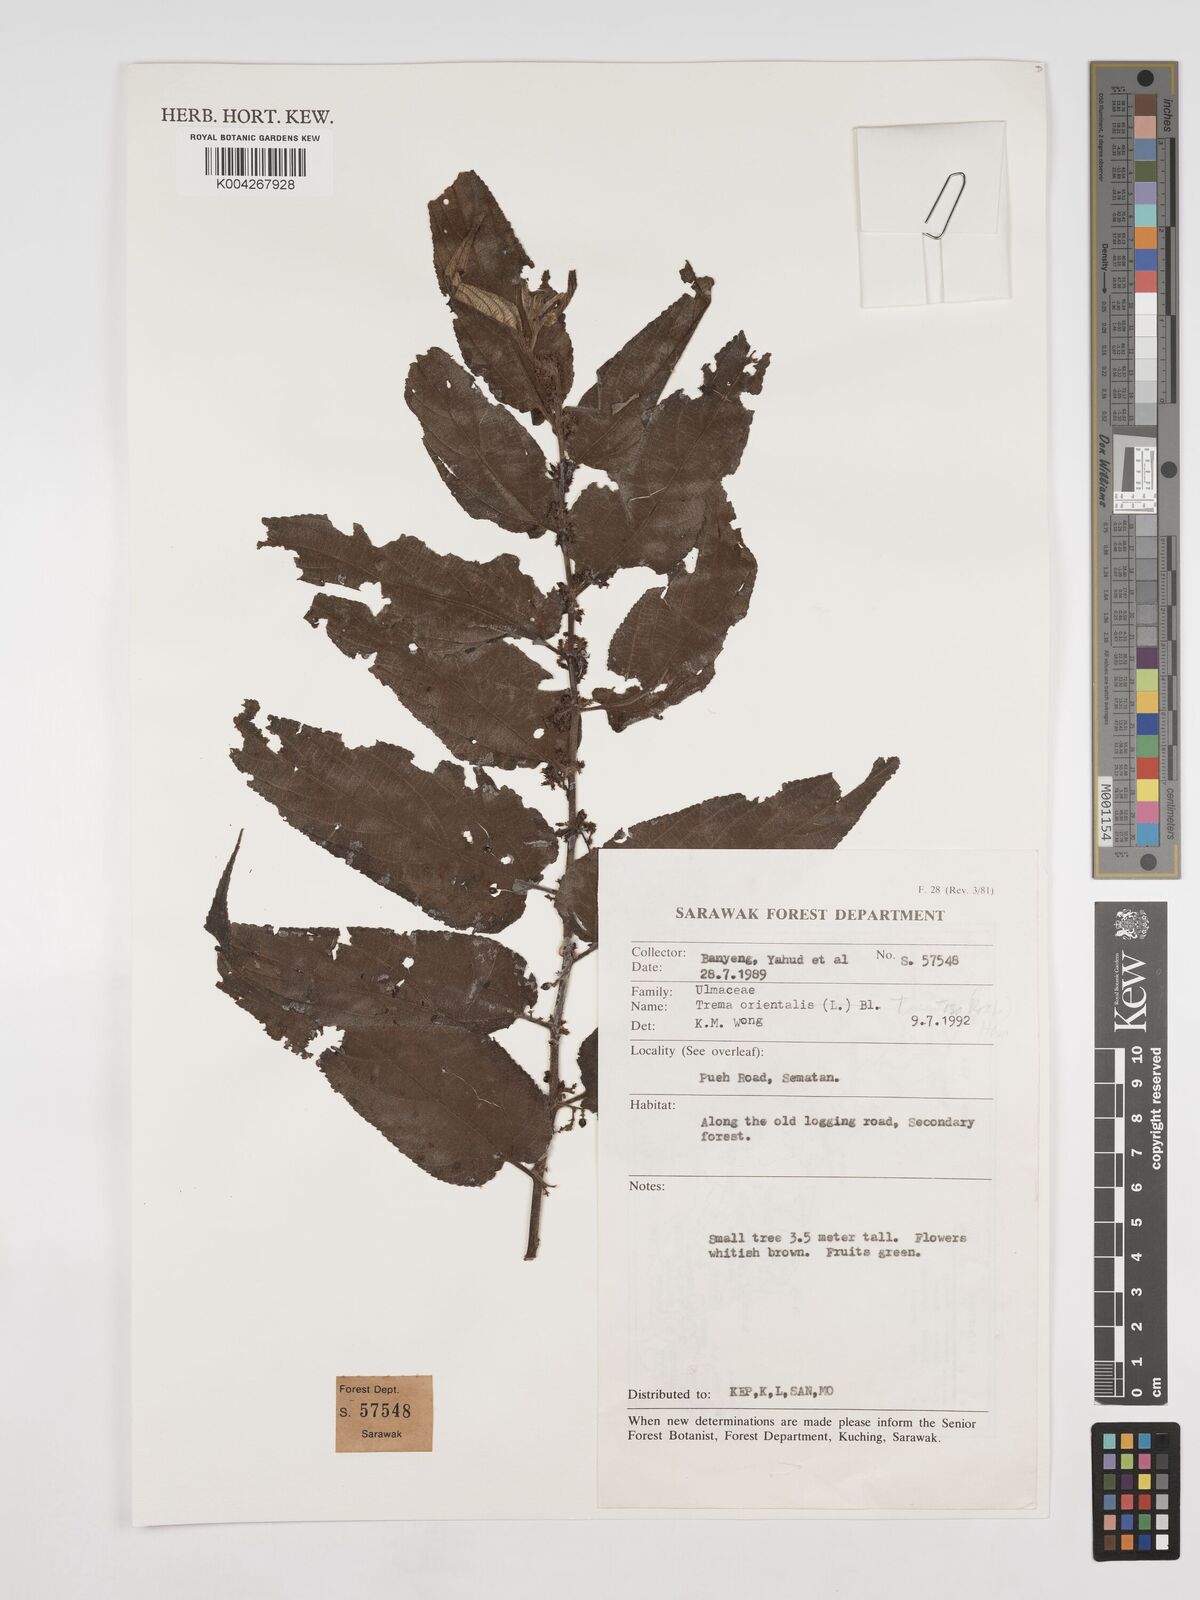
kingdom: Plantae
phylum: Tracheophyta
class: Magnoliopsida
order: Rosales
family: Cannabaceae
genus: Trema
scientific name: Trema tomentosum
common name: Peach-leaf-poisonbush
